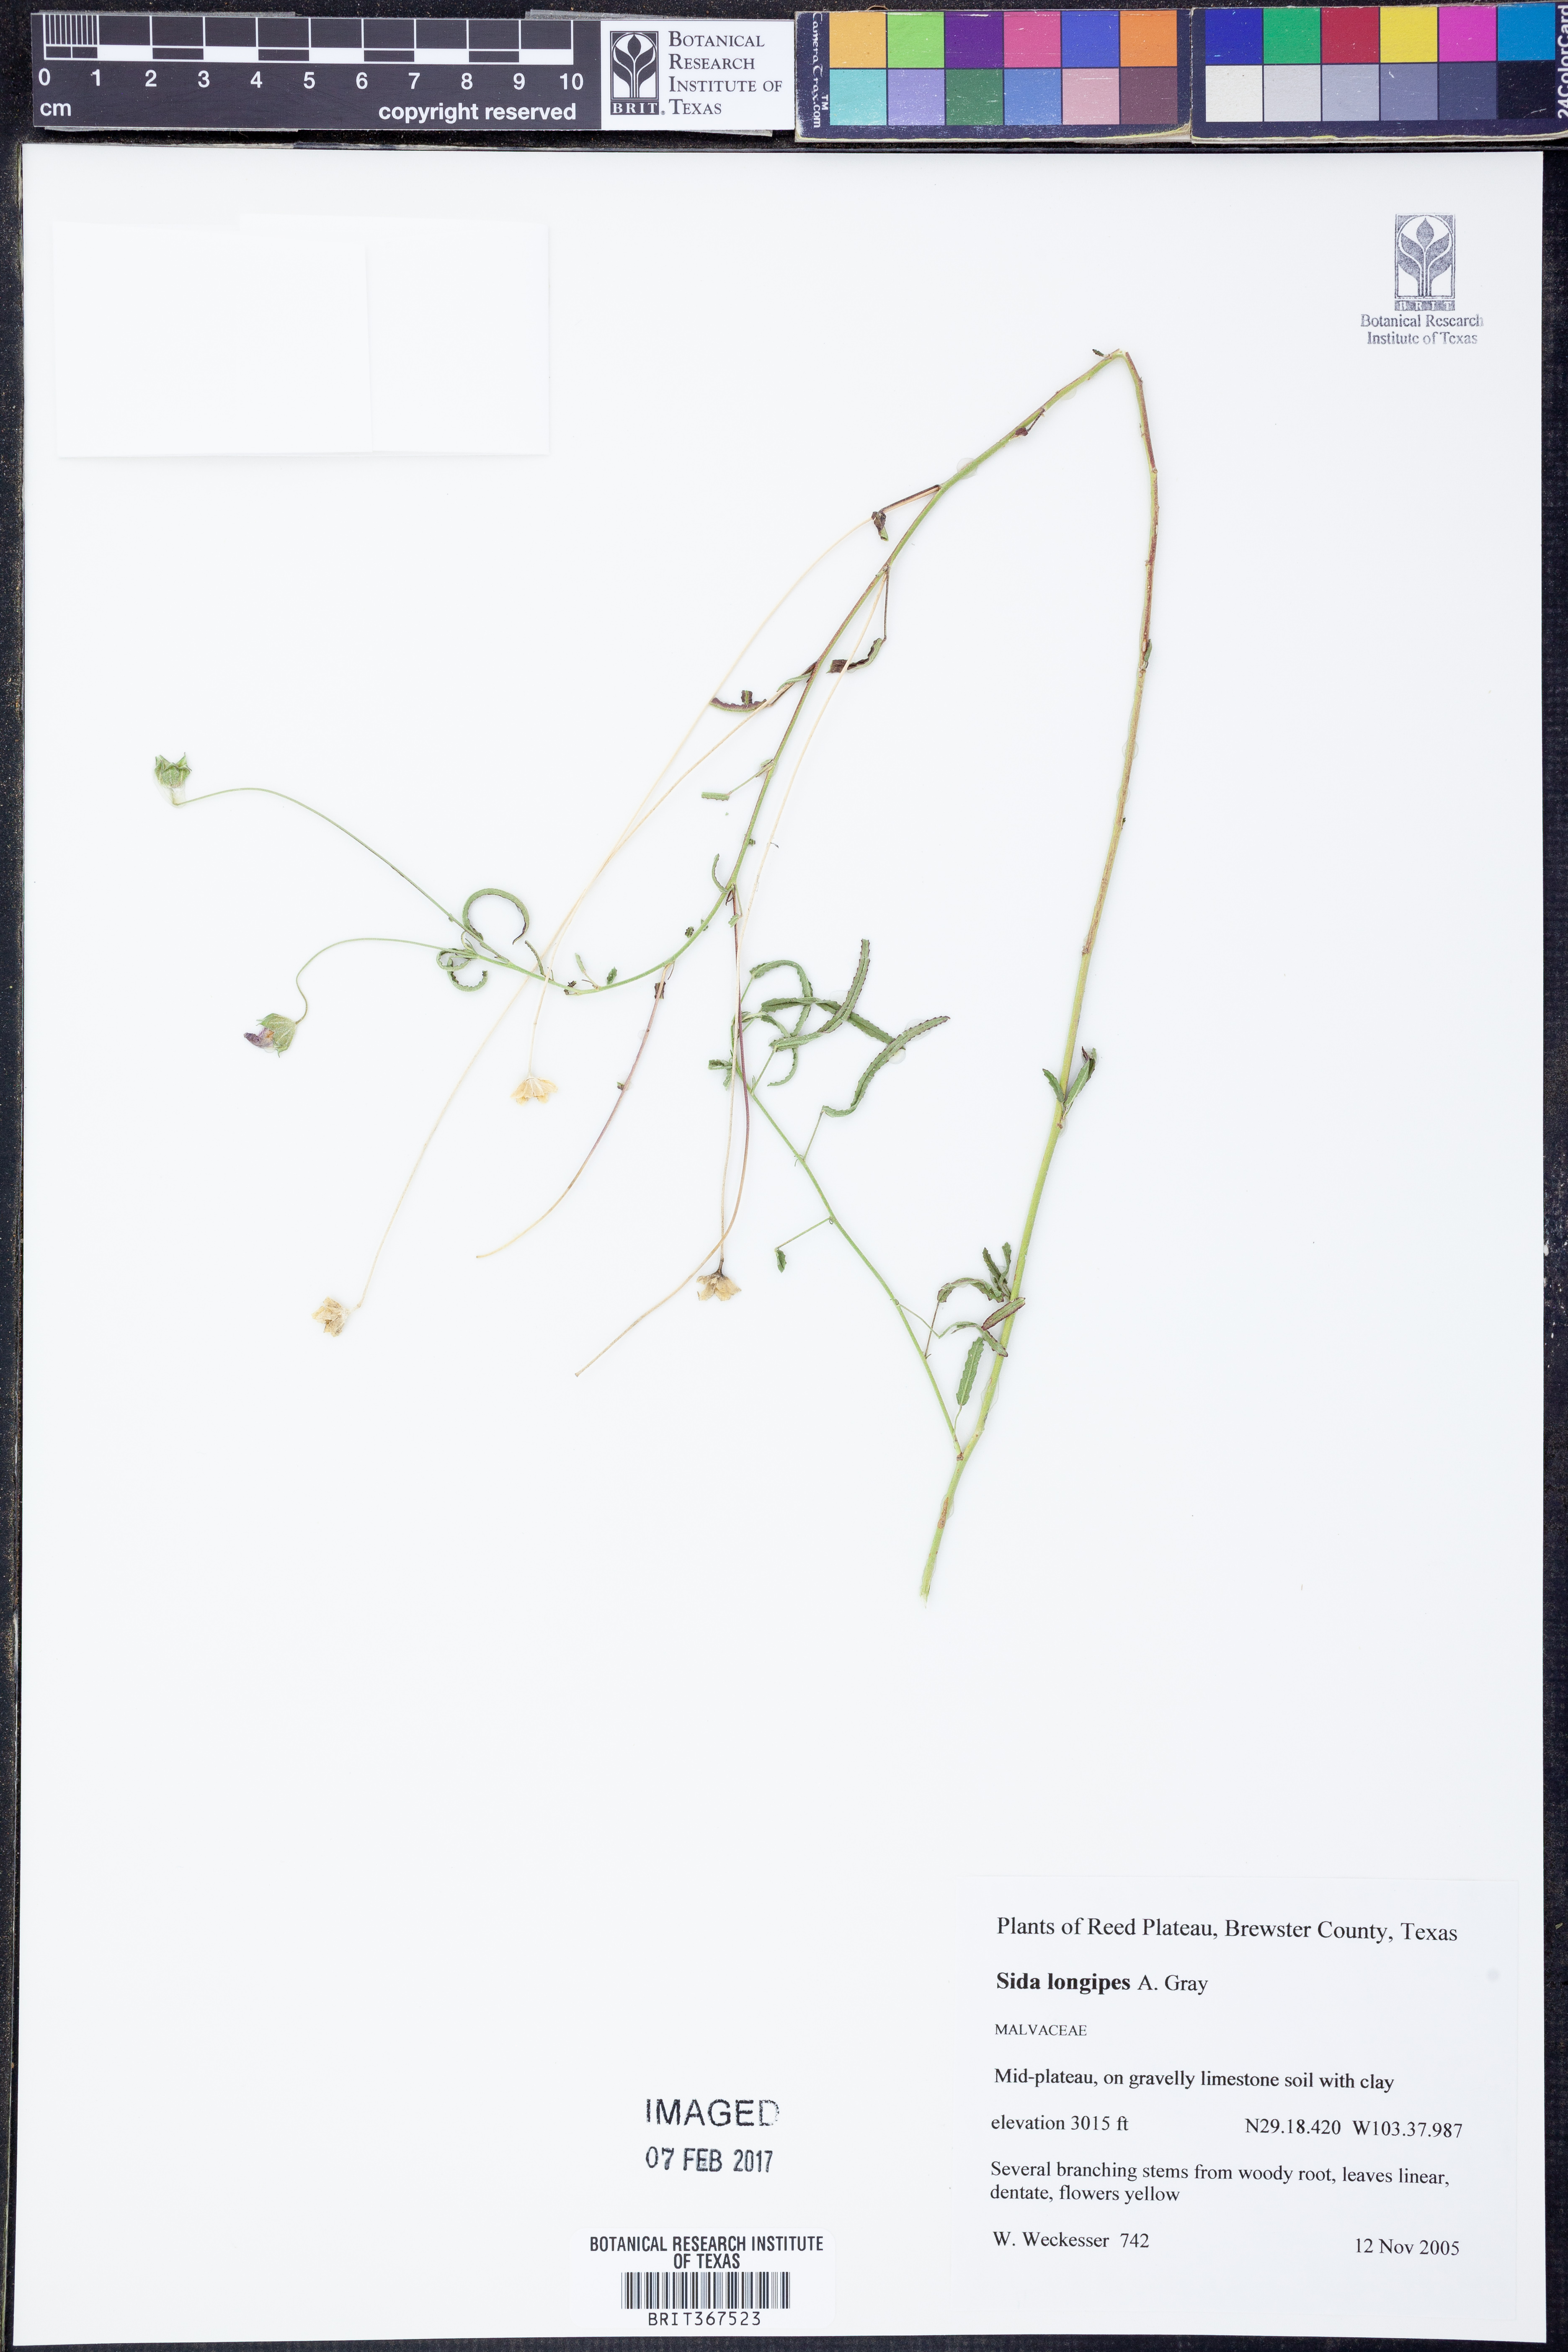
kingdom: Plantae
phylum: Tracheophyta
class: Magnoliopsida
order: Malvales
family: Malvaceae
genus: Sida
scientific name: Sida lancifolia
